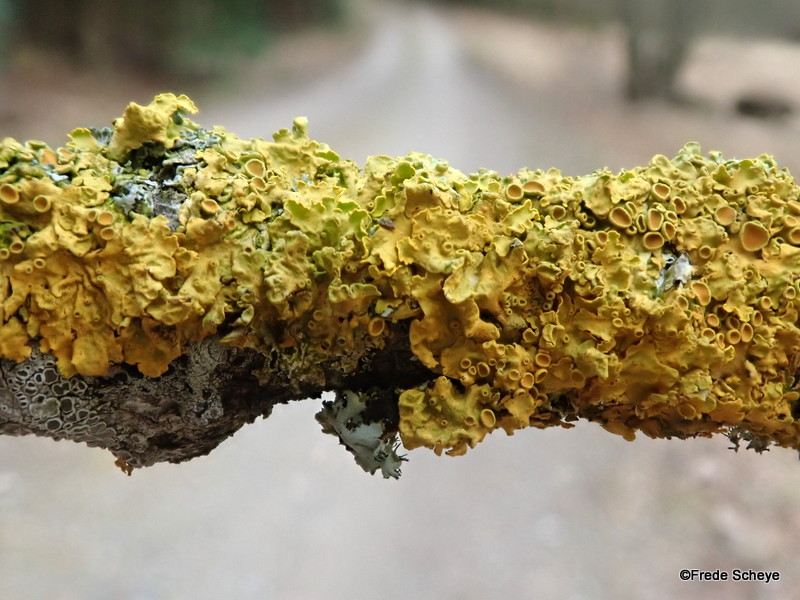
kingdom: Fungi
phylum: Ascomycota
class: Lecanoromycetes
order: Teloschistales
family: Teloschistaceae
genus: Xanthoria
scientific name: Xanthoria parietina
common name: almindelig væggelav
